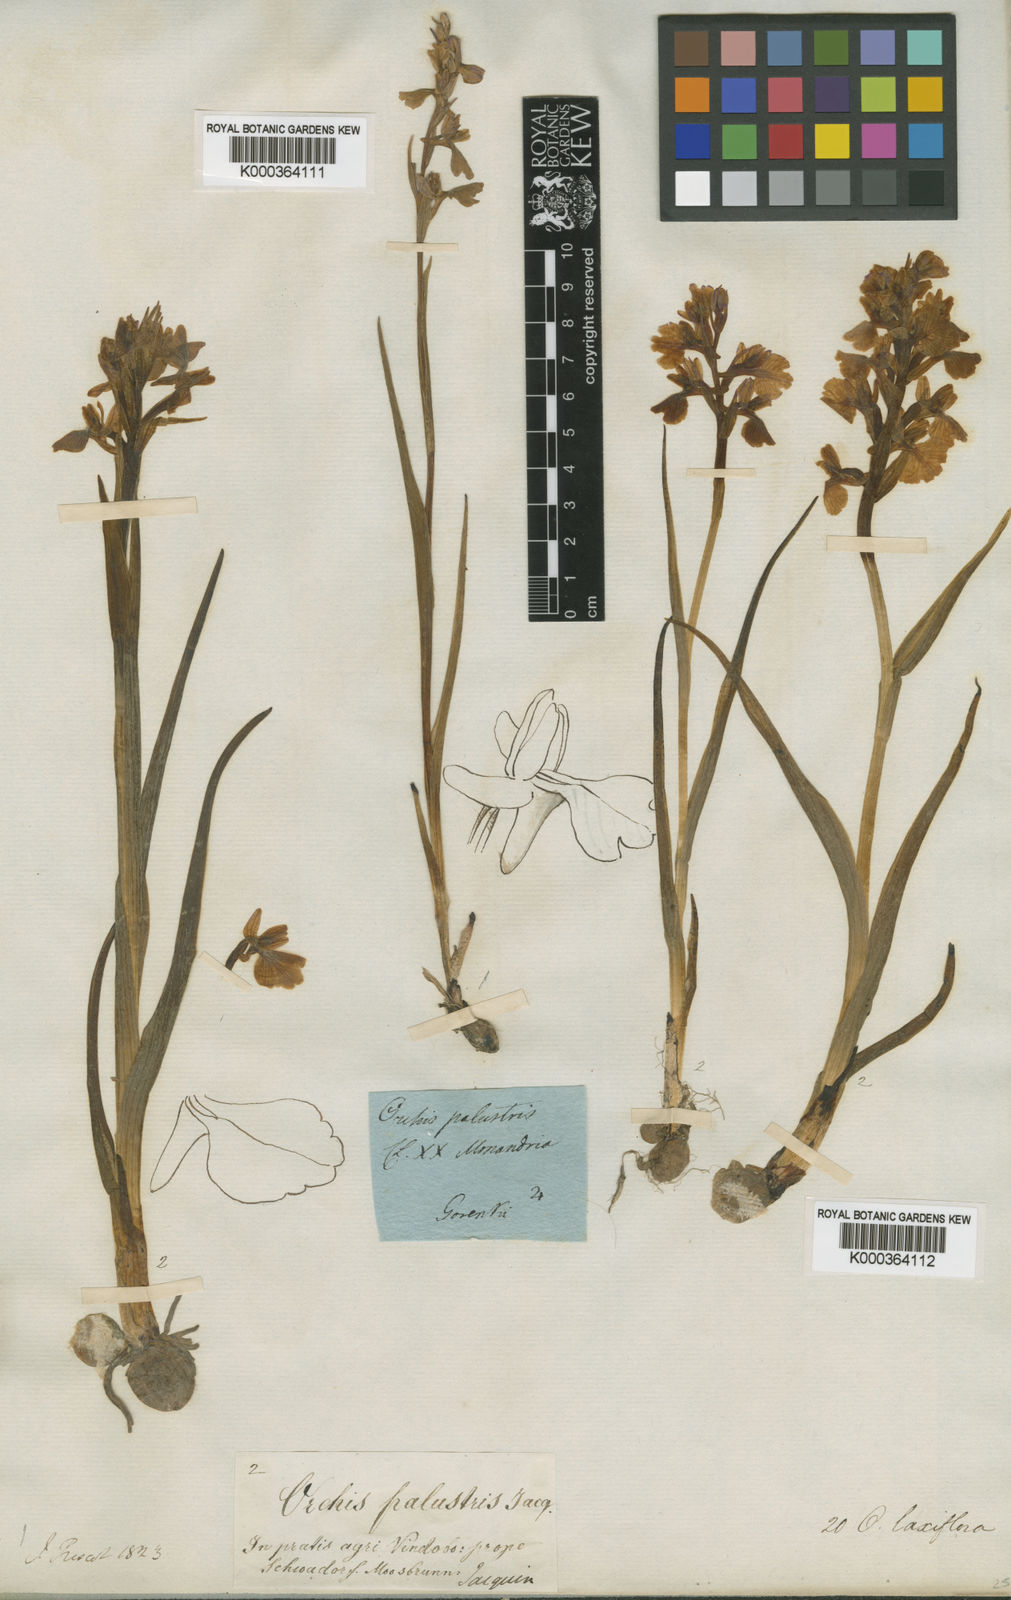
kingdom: Plantae
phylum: Tracheophyta
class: Liliopsida
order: Asparagales
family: Orchidaceae
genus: Anacamptis
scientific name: Anacamptis laxiflora
